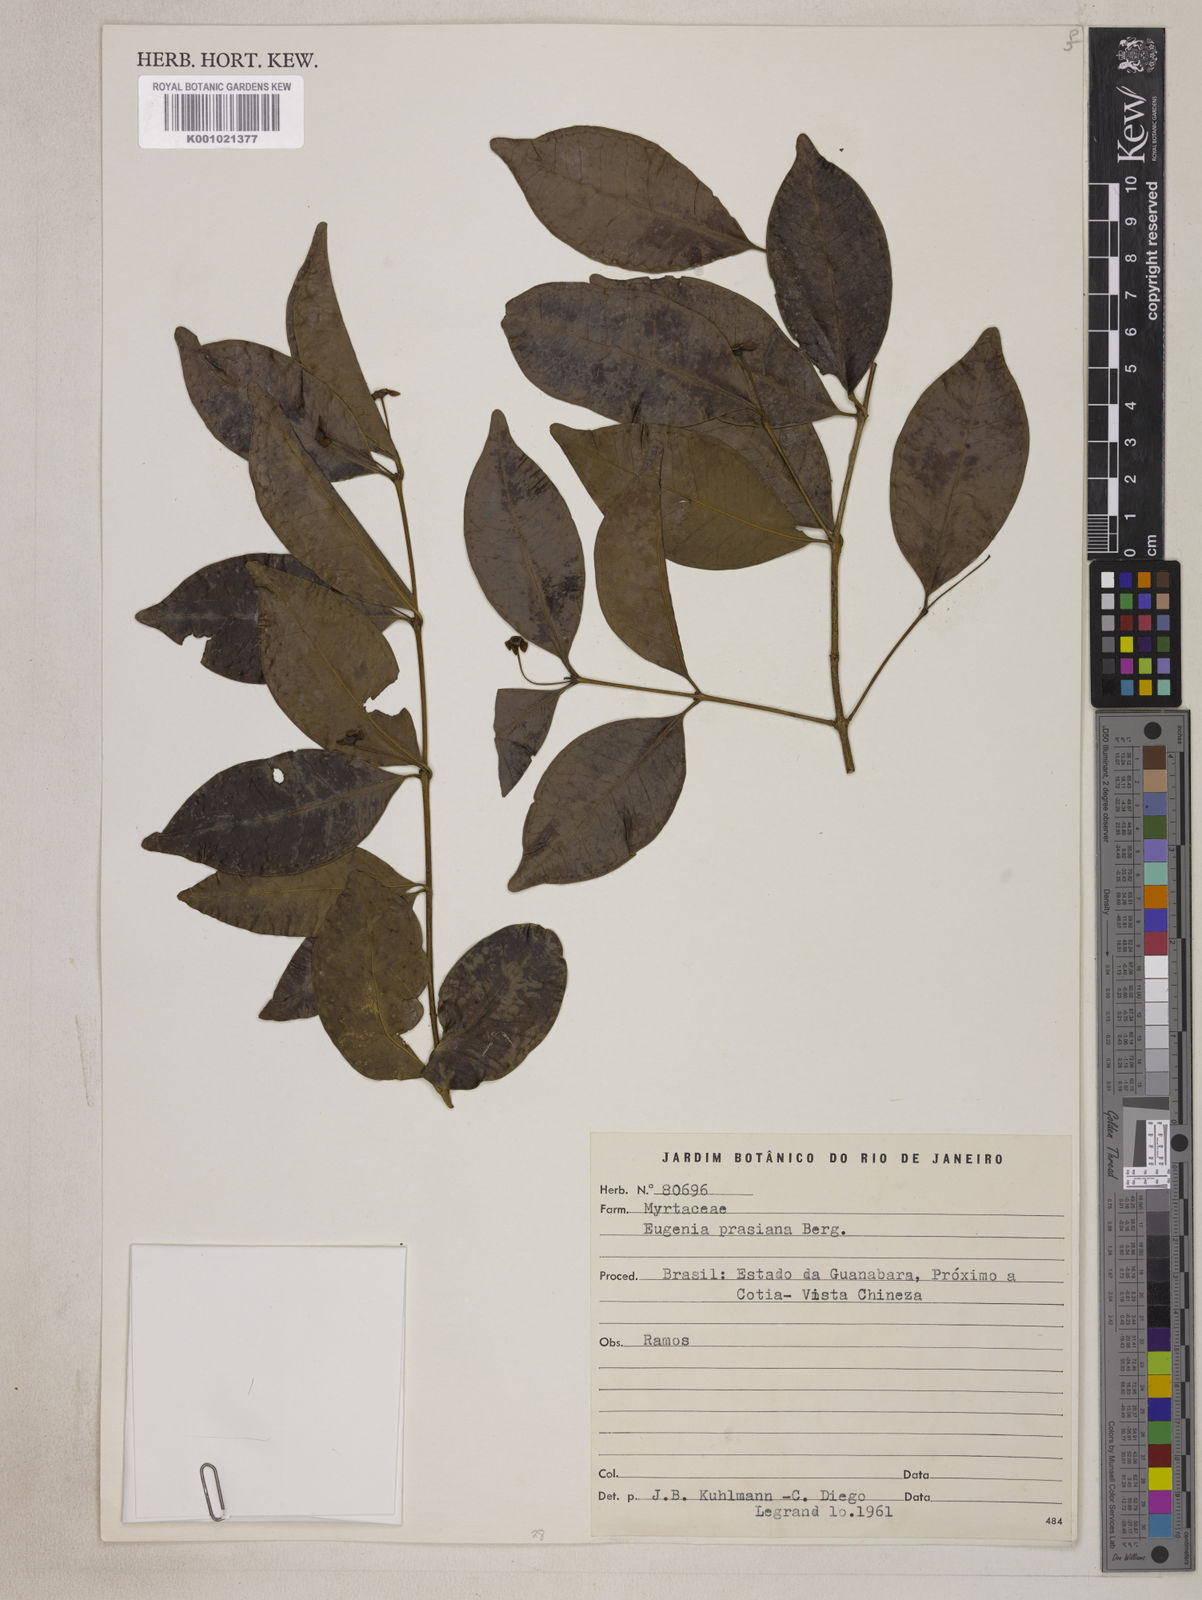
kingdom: Plantae
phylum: Tracheophyta
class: Magnoliopsida
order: Myrtales
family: Myrtaceae
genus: Eugenia
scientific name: Eugenia prasina
